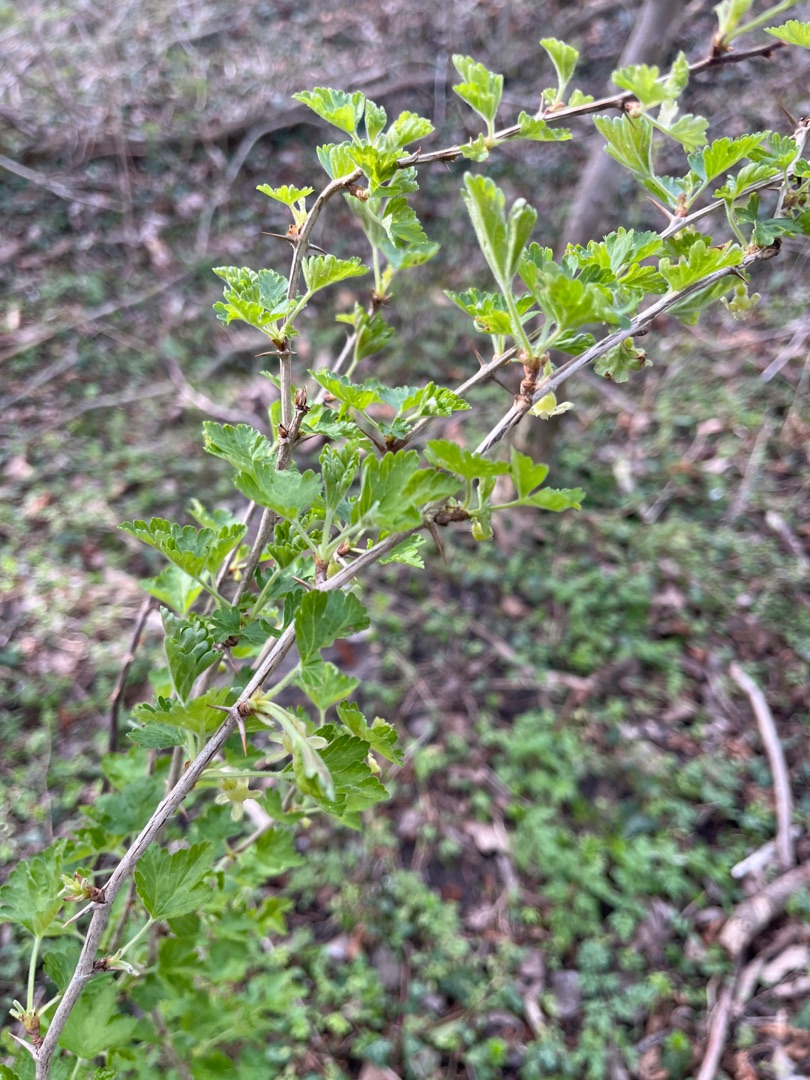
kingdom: Plantae
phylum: Tracheophyta
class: Magnoliopsida
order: Saxifragales
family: Grossulariaceae
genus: Ribes
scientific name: Ribes uva-crispa
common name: Stikkelsbær
